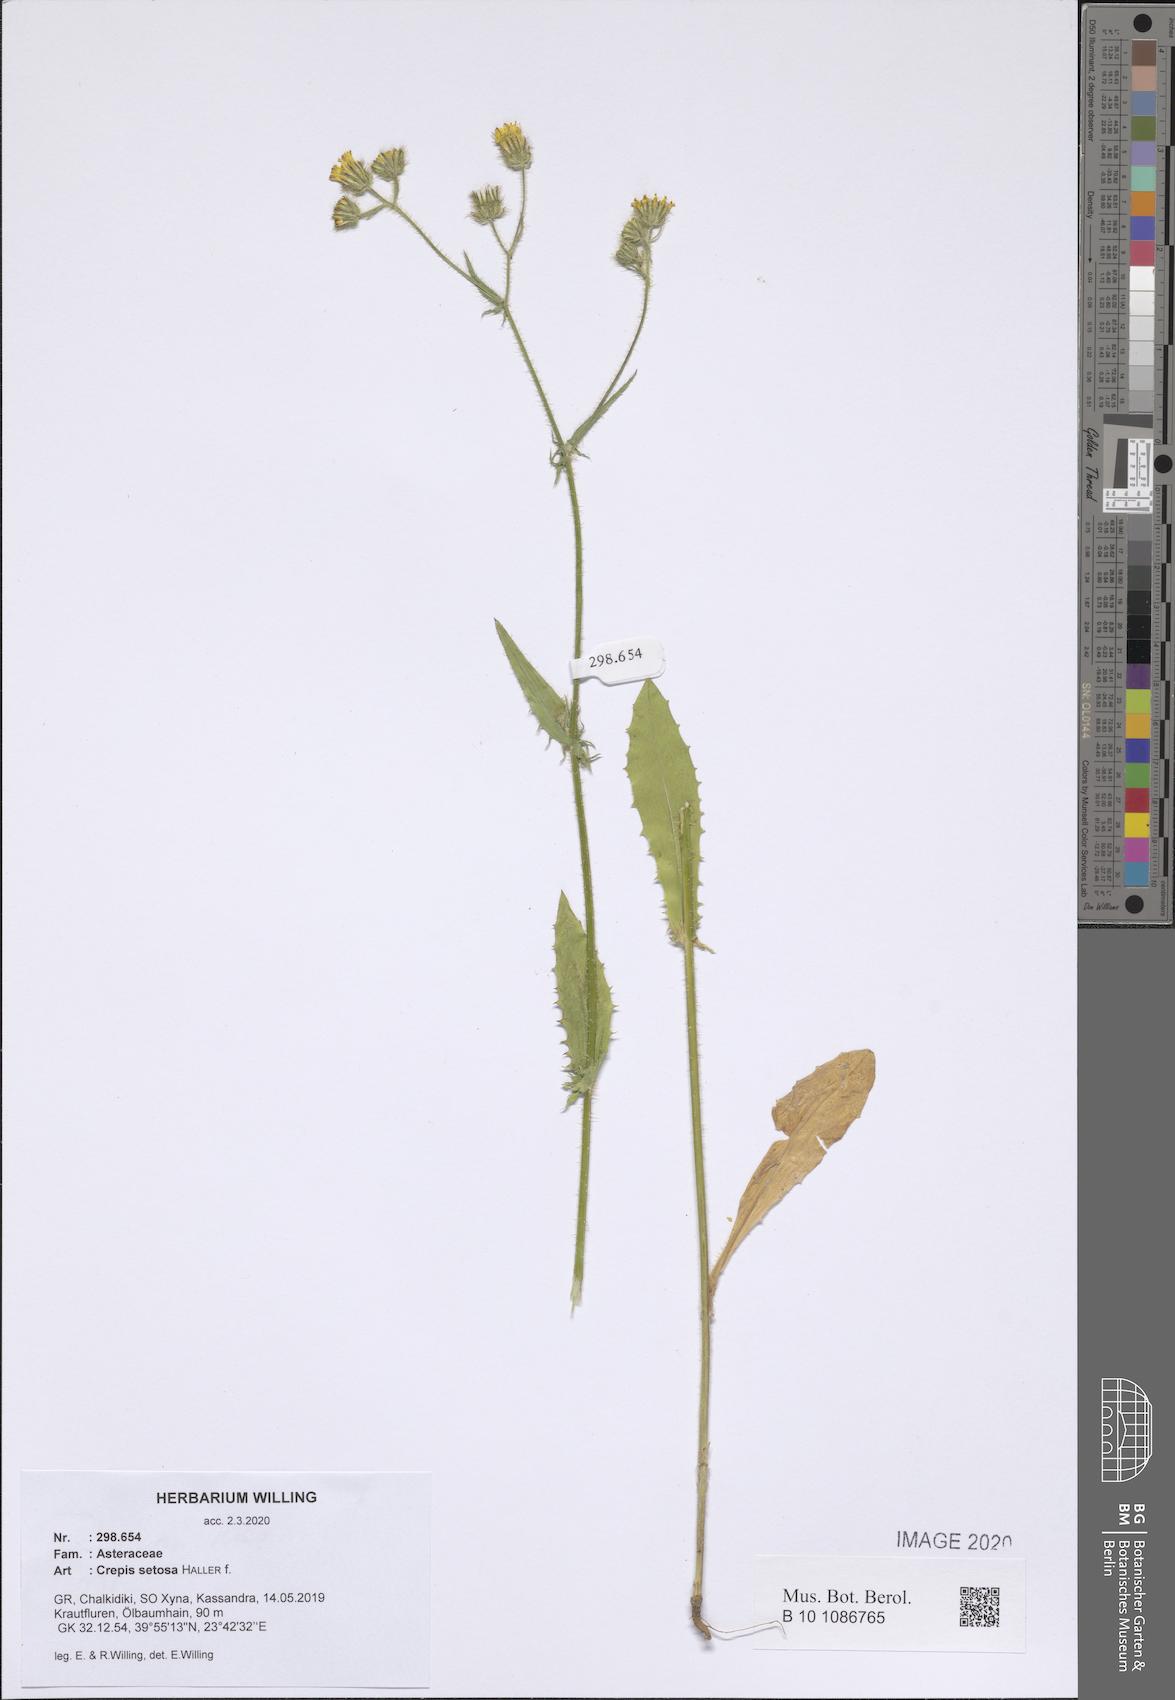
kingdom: Plantae
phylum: Tracheophyta
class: Magnoliopsida
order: Asterales
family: Asteraceae
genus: Crepis
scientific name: Crepis setosa
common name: Bristly hawk's-beard
